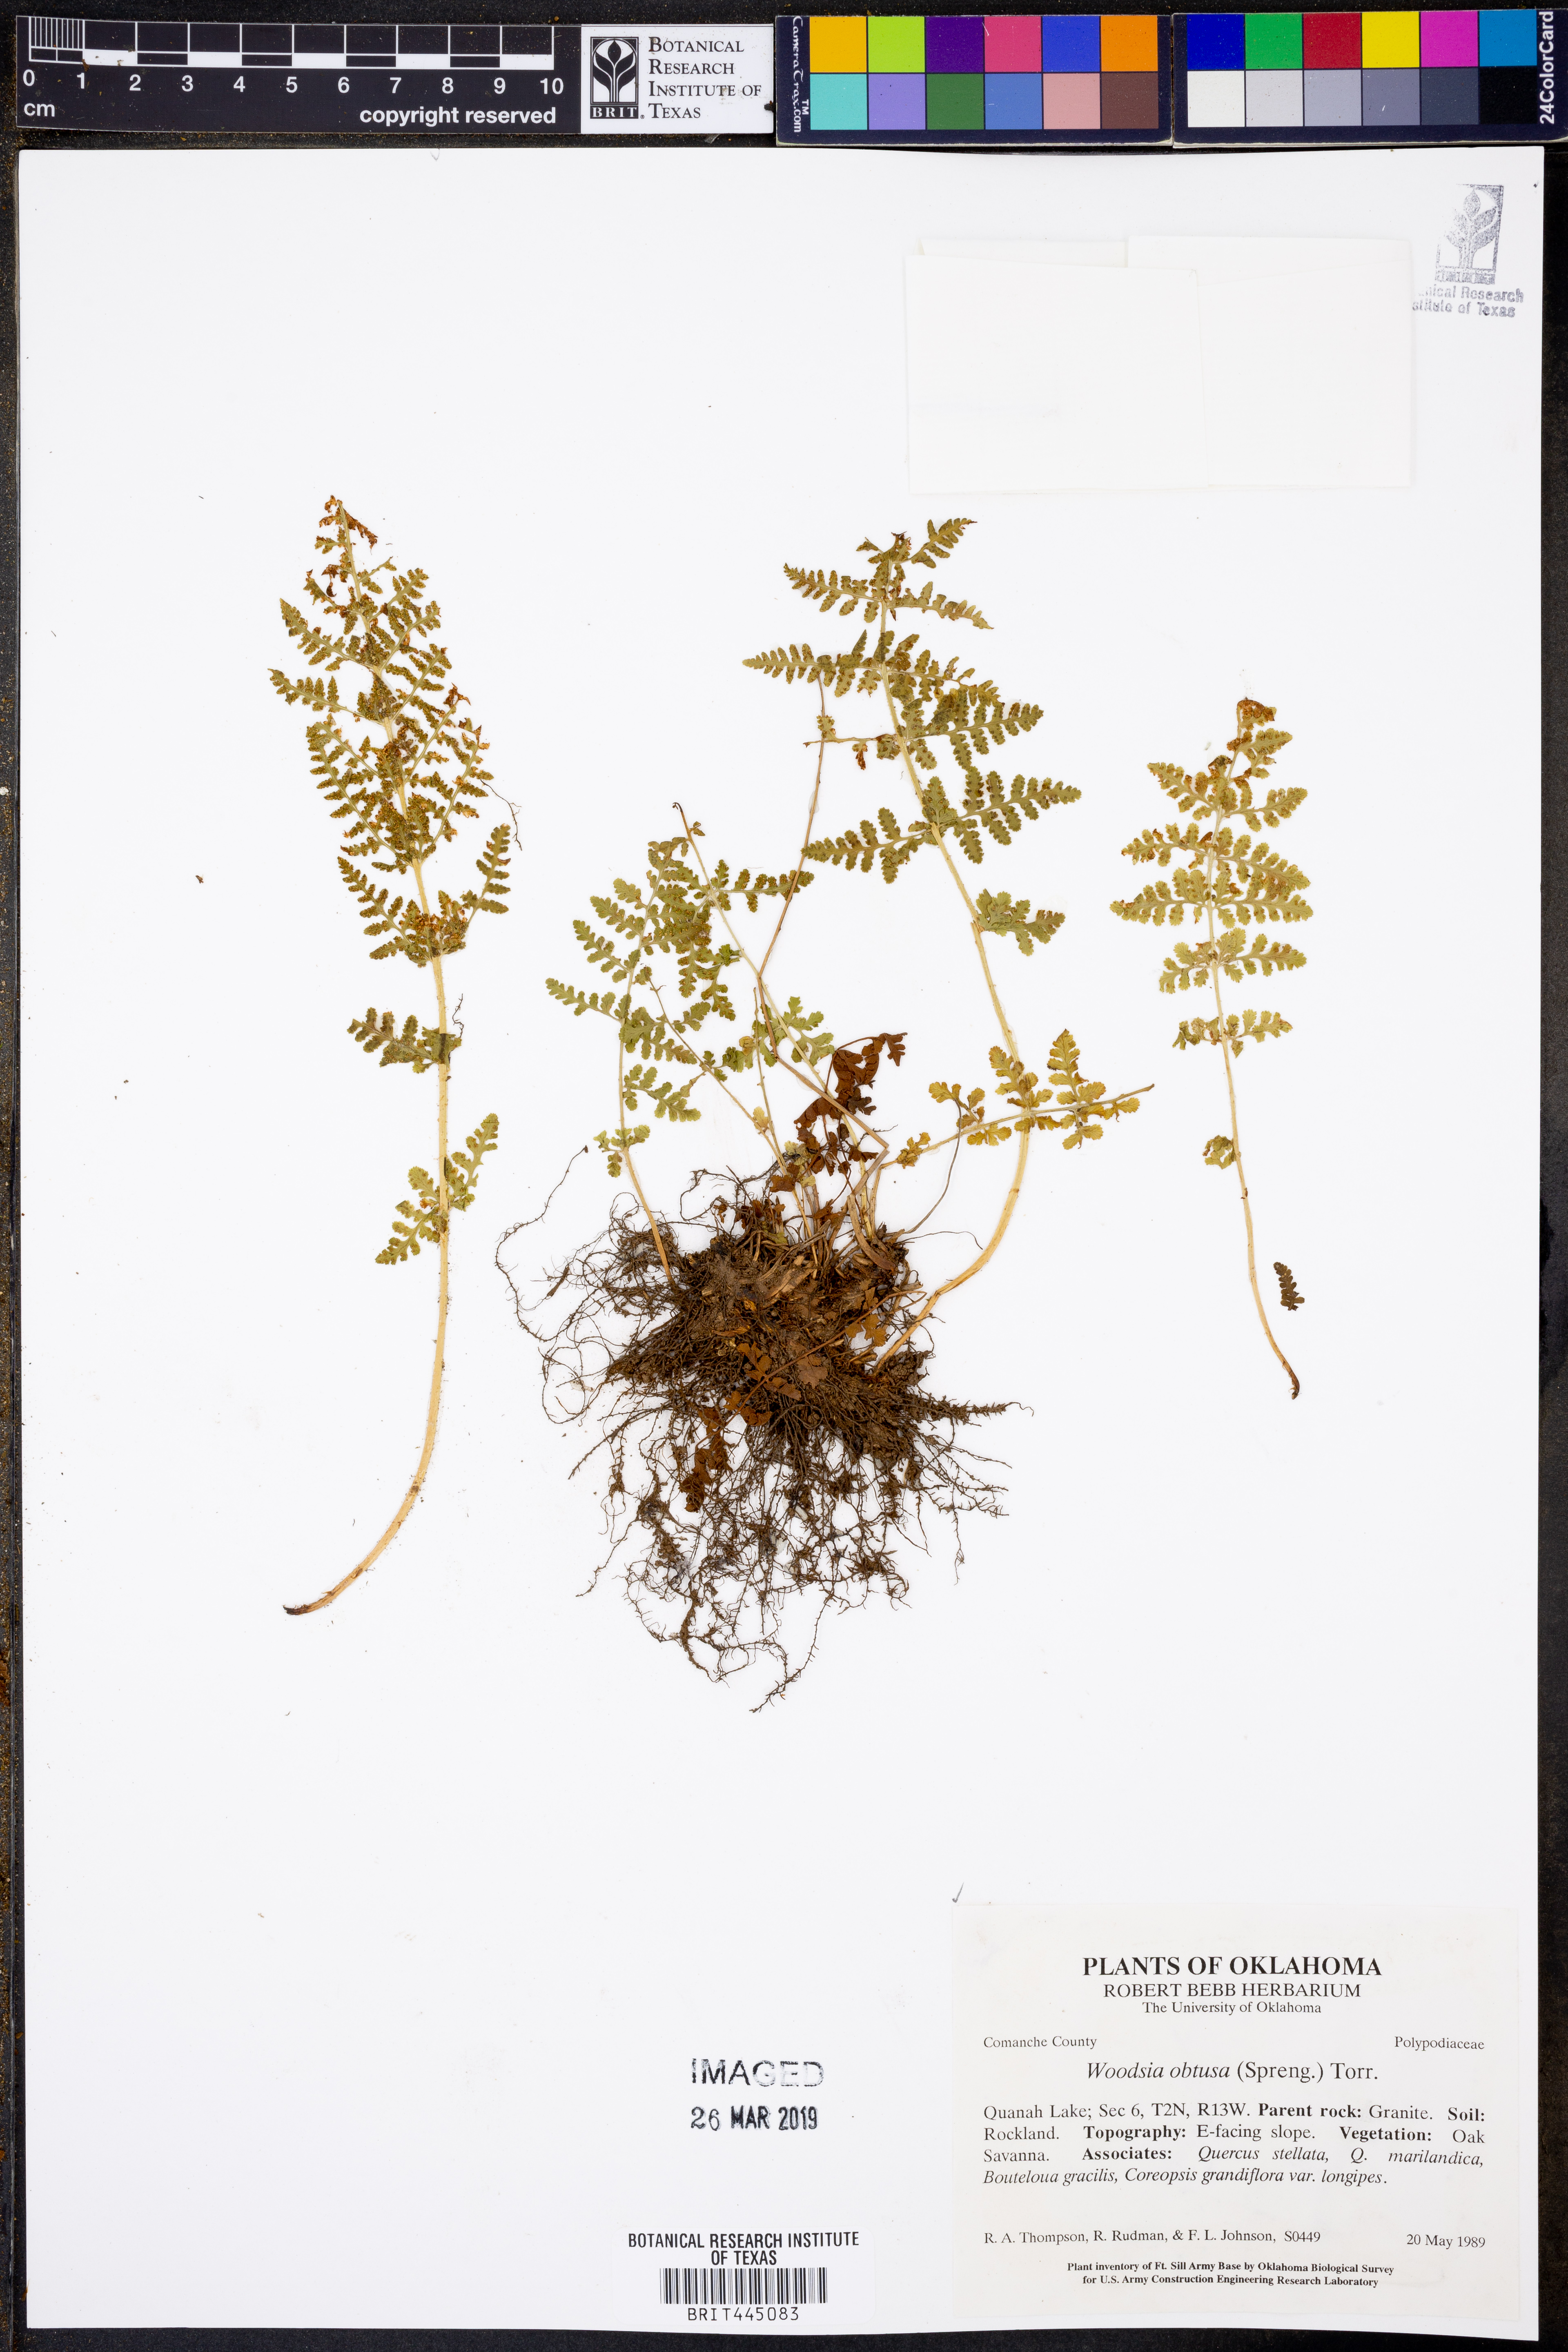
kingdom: Plantae
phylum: Tracheophyta
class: Polypodiopsida
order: Polypodiales
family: Woodsiaceae
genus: Physematium
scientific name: Physematium obtusum
